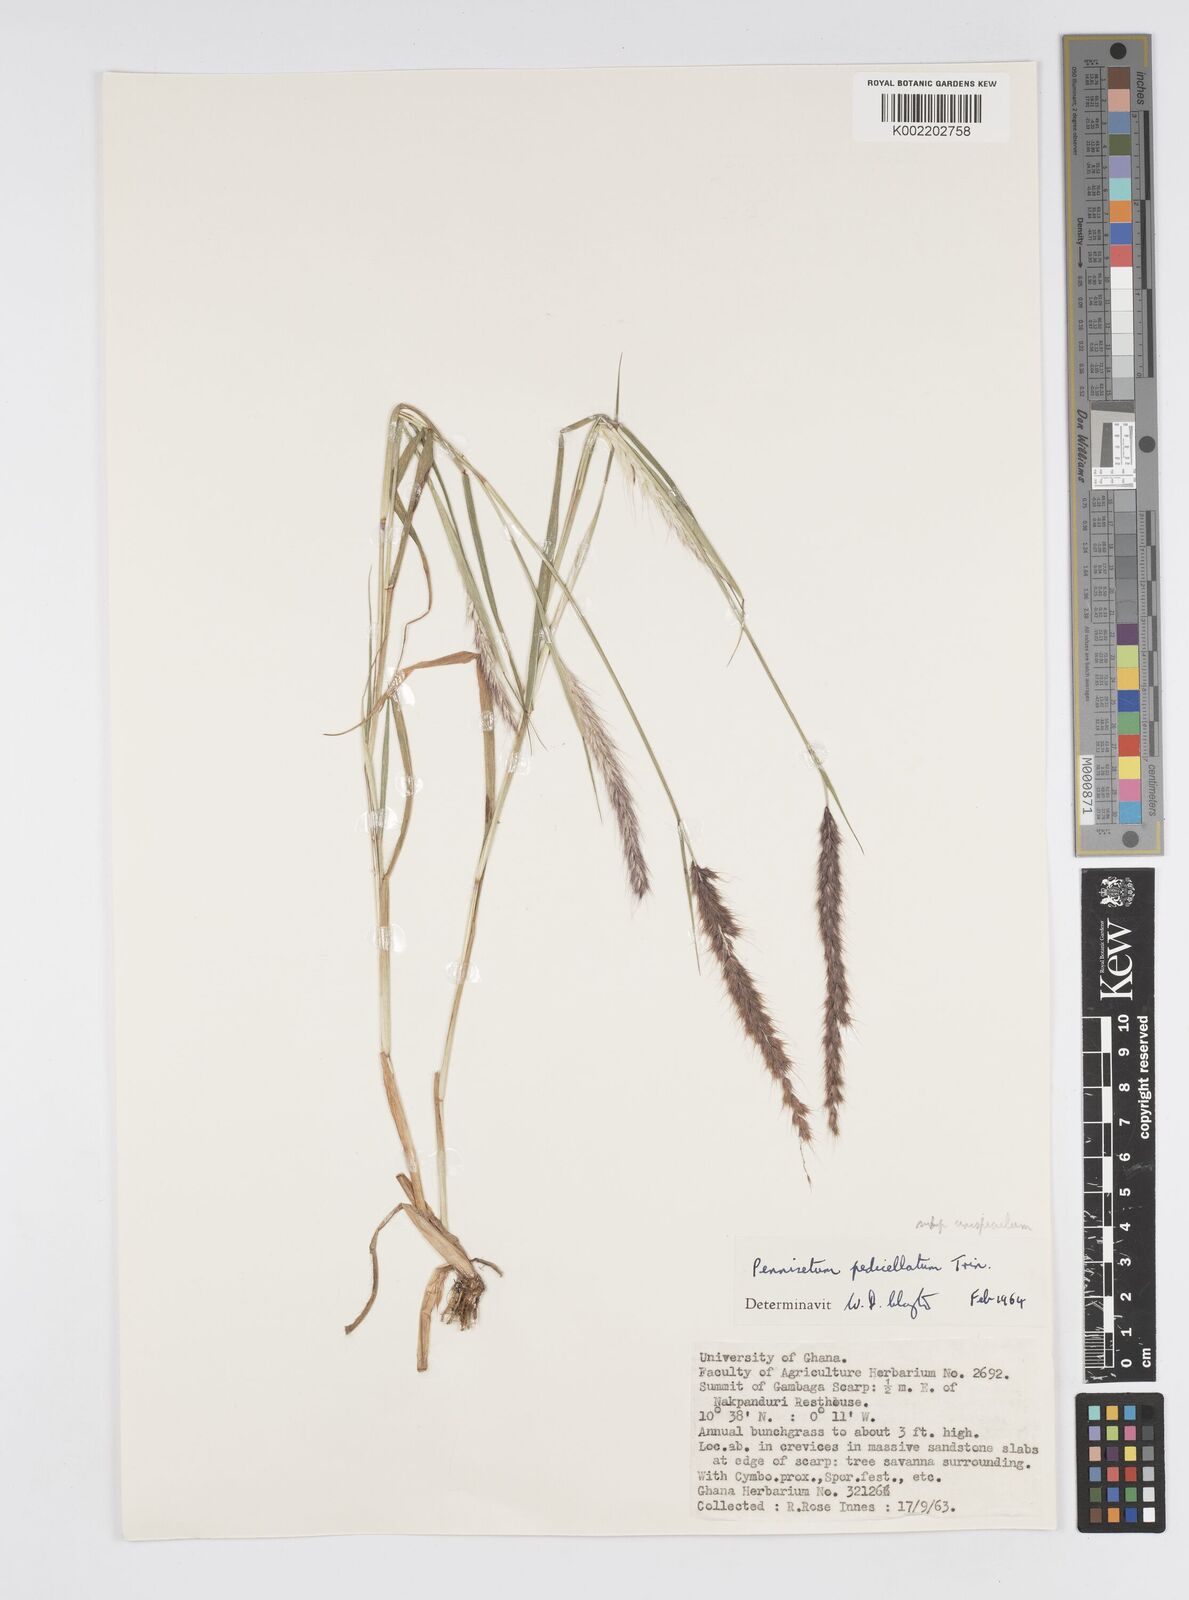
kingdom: Plantae
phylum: Tracheophyta
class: Liliopsida
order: Poales
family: Poaceae
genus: Cenchrus
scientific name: Cenchrus pedicellatus
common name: Hairy fountain grass
